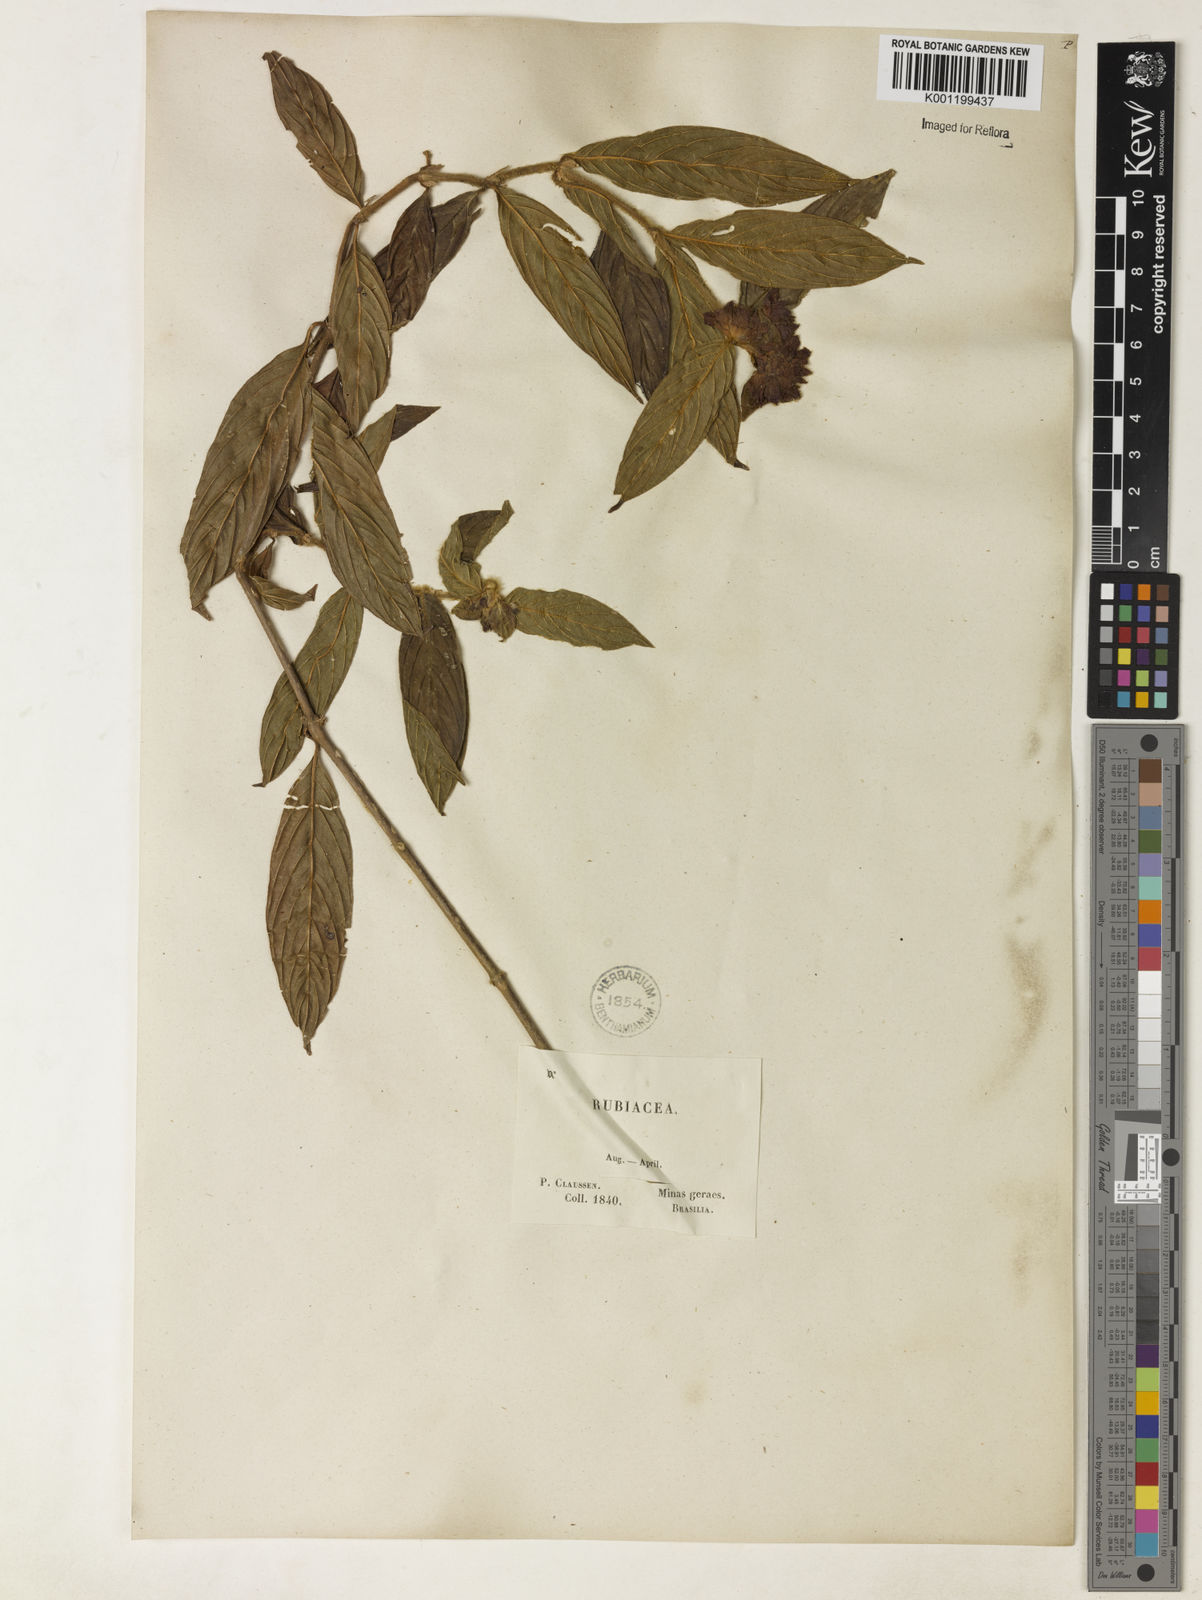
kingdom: Plantae
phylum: Tracheophyta
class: Magnoliopsida
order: Gentianales
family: Rubiaceae
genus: Psychotria
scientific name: Psychotria
